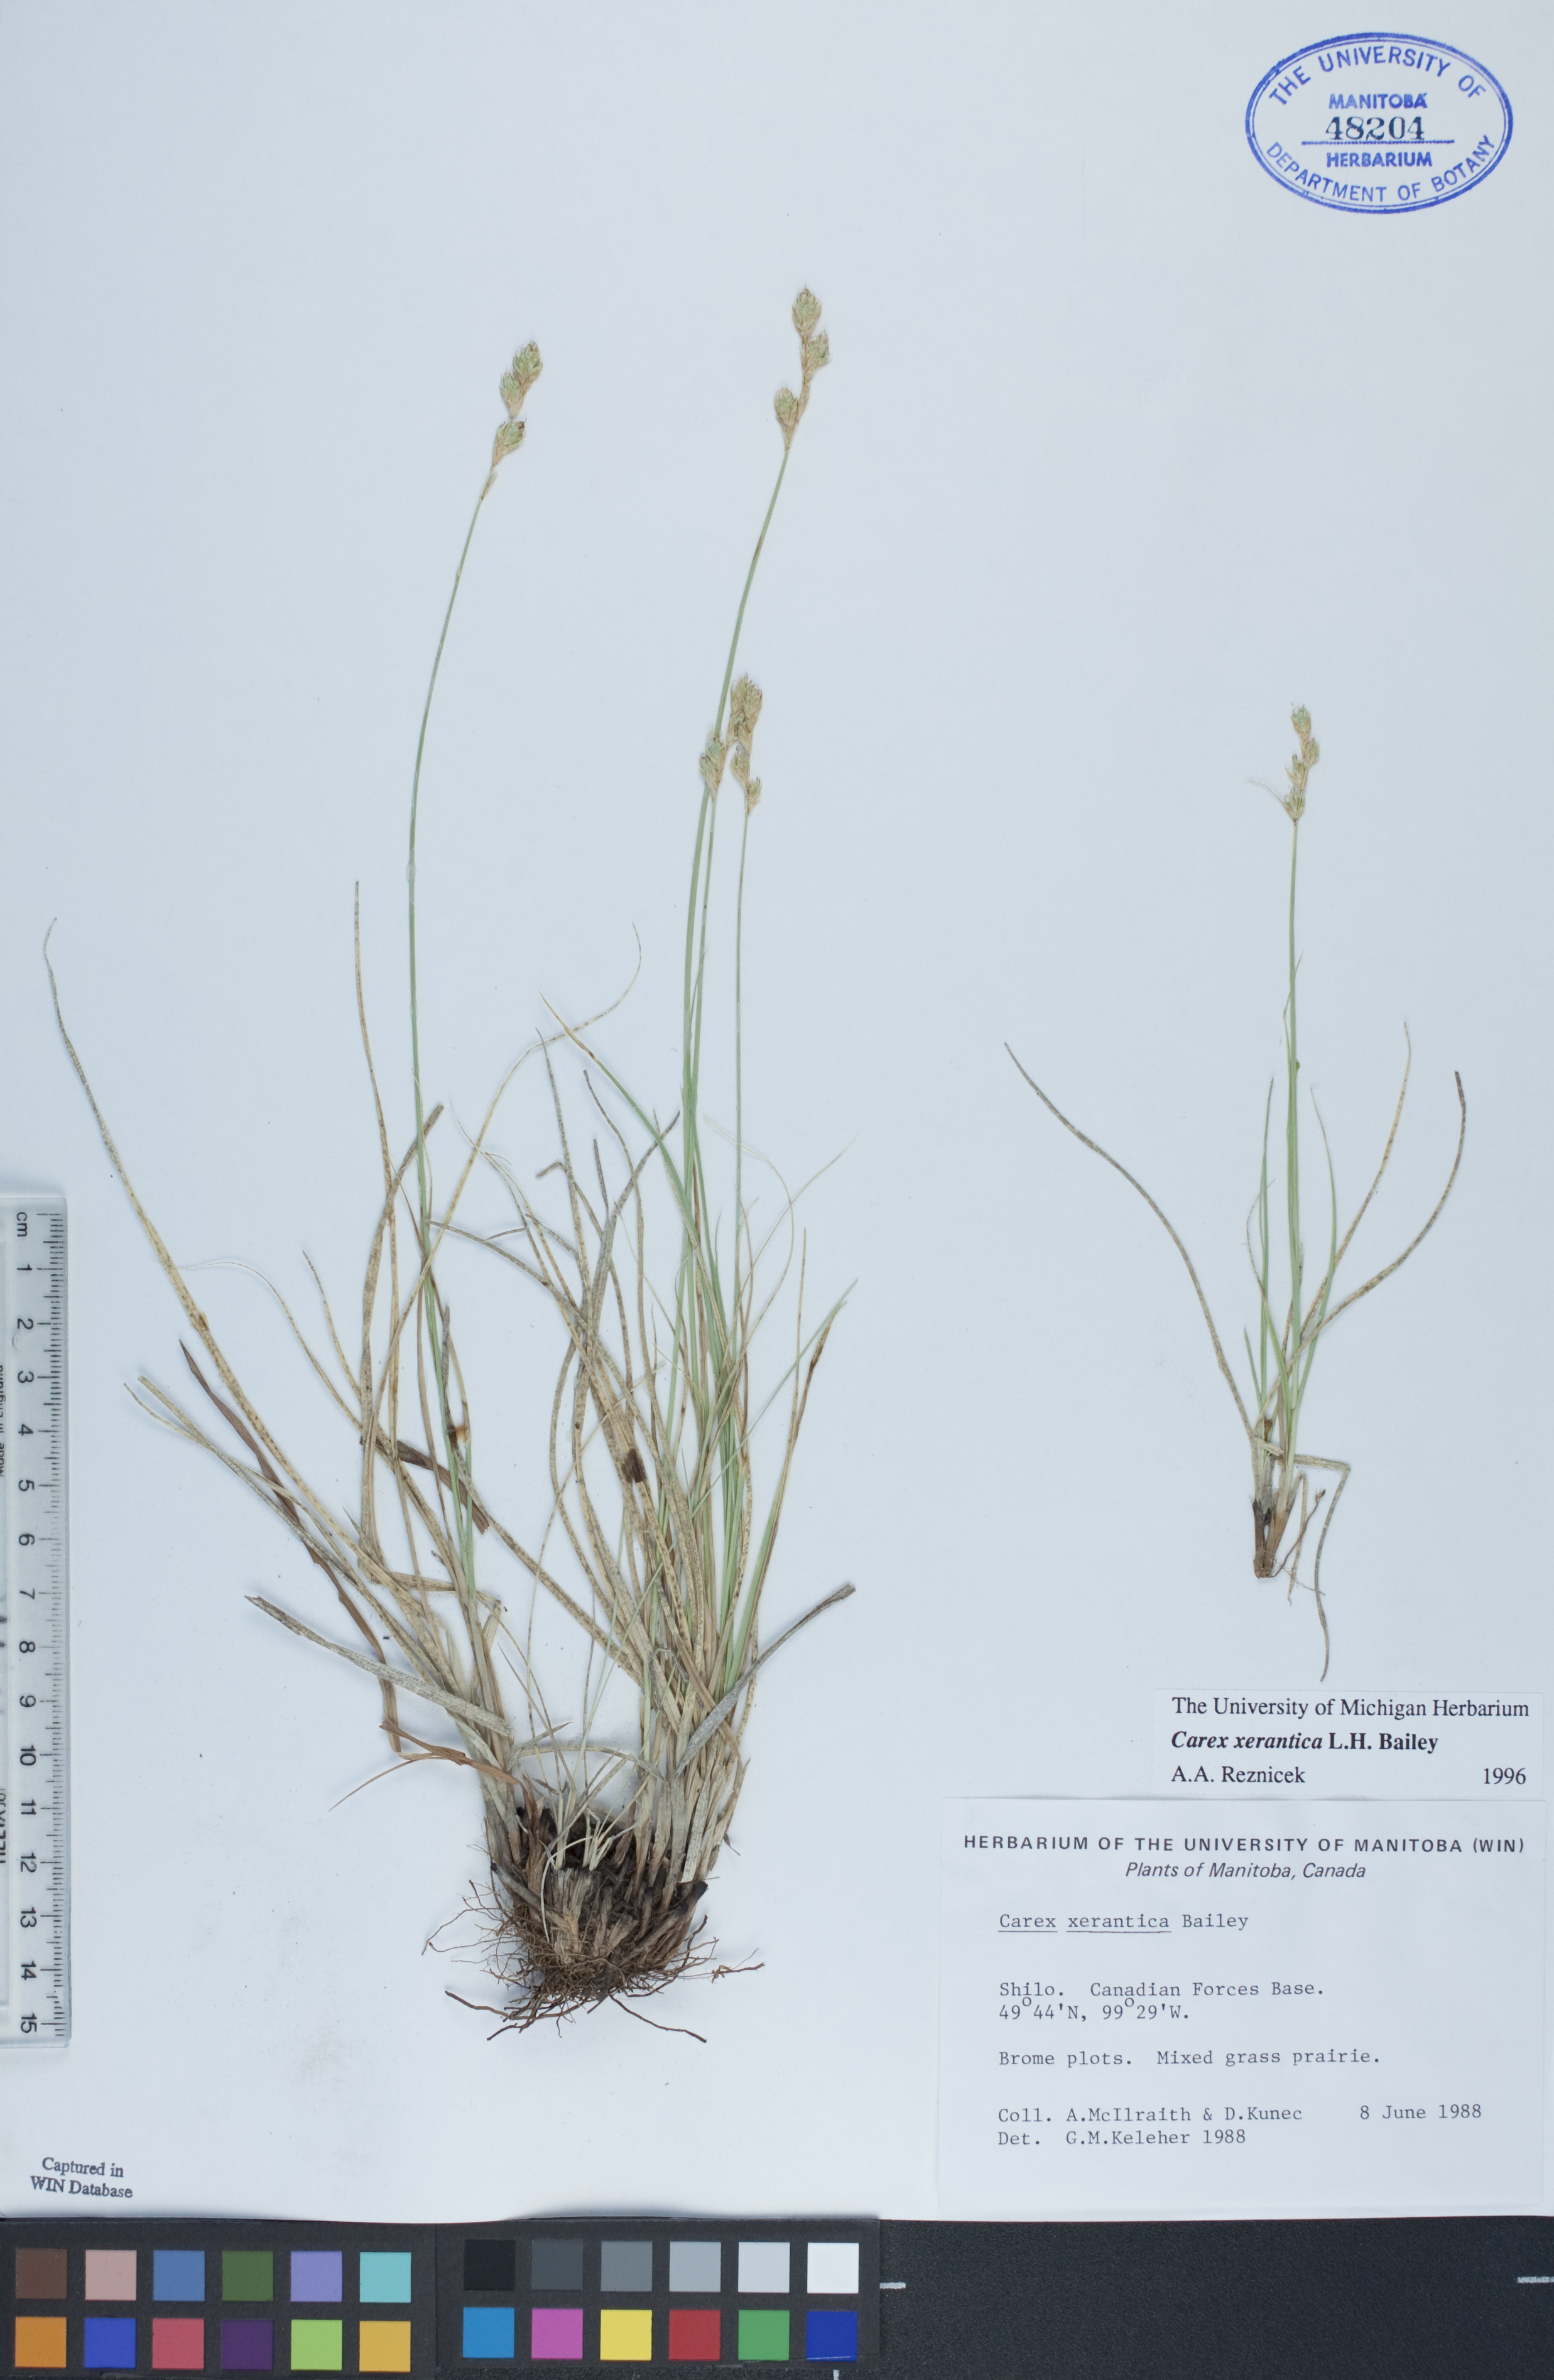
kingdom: Plantae
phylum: Tracheophyta
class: Liliopsida
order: Poales
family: Cyperaceae
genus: Carex
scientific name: Carex xerantica
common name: Dryland sedge
